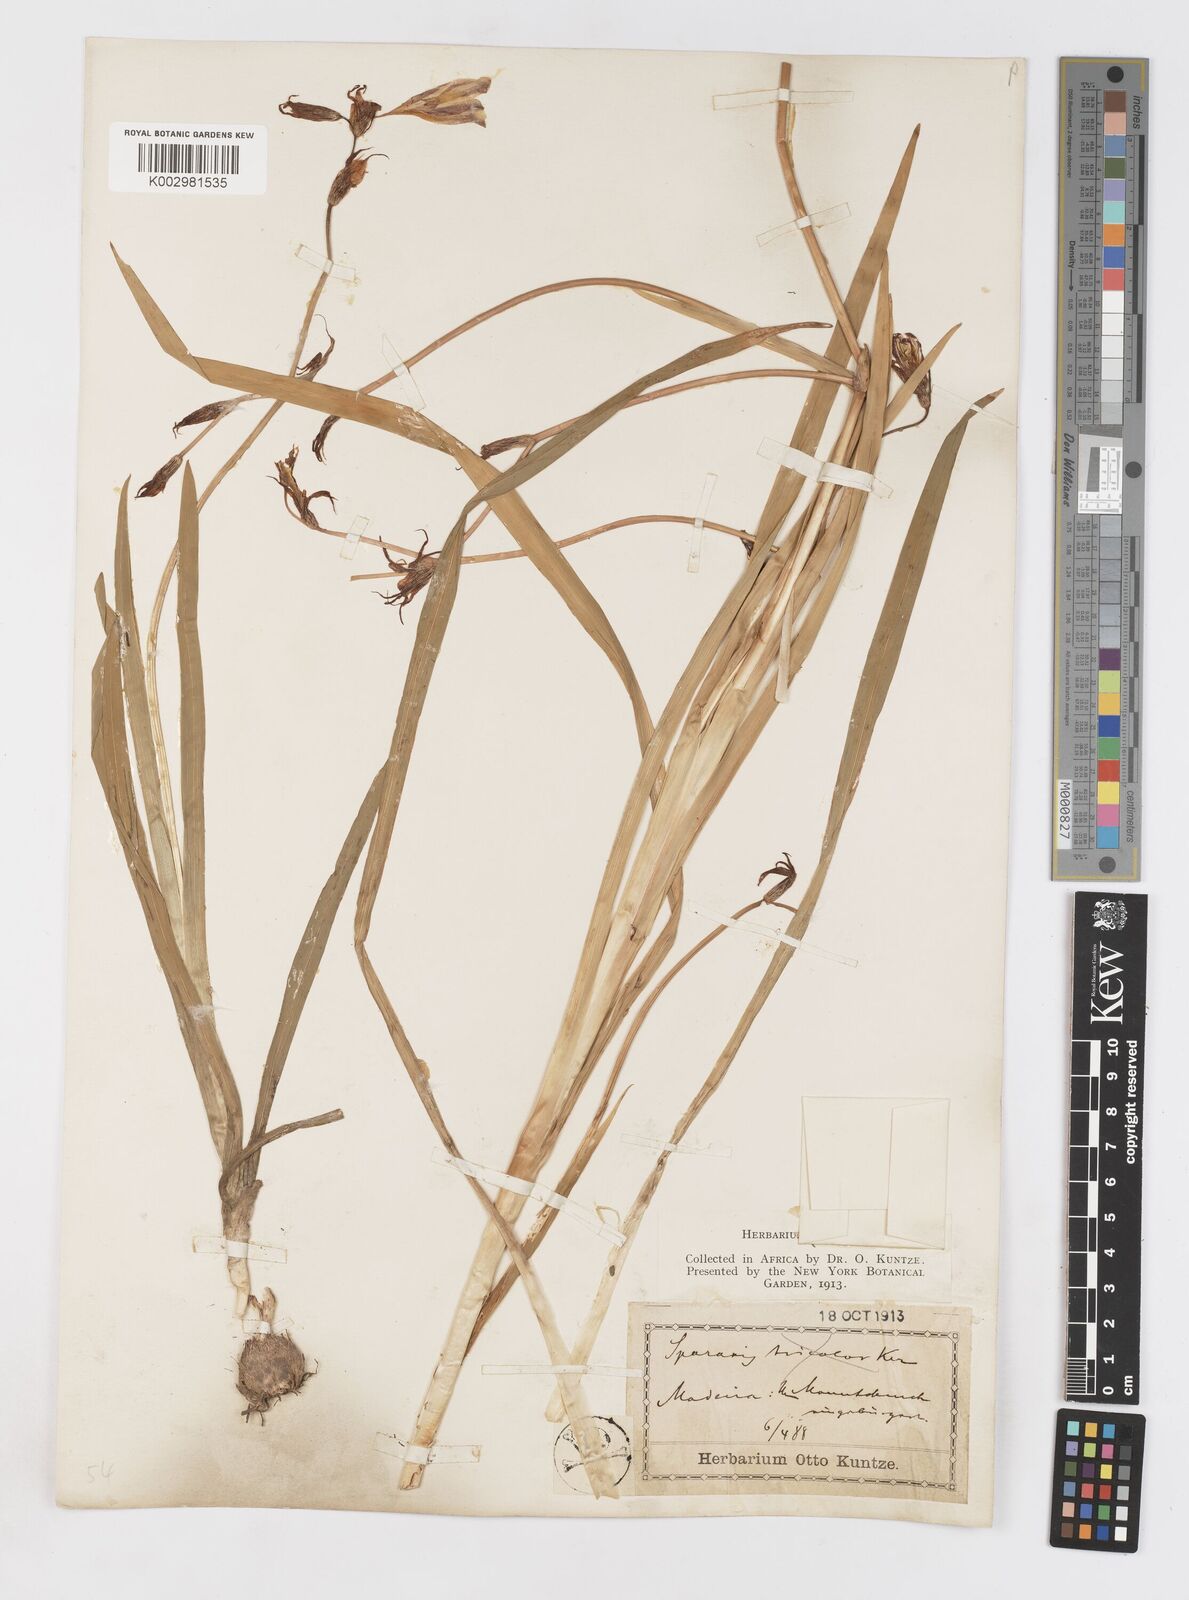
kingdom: Plantae
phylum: Tracheophyta
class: Liliopsida
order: Asparagales
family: Iridaceae
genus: Sparaxis
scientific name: Sparaxis
